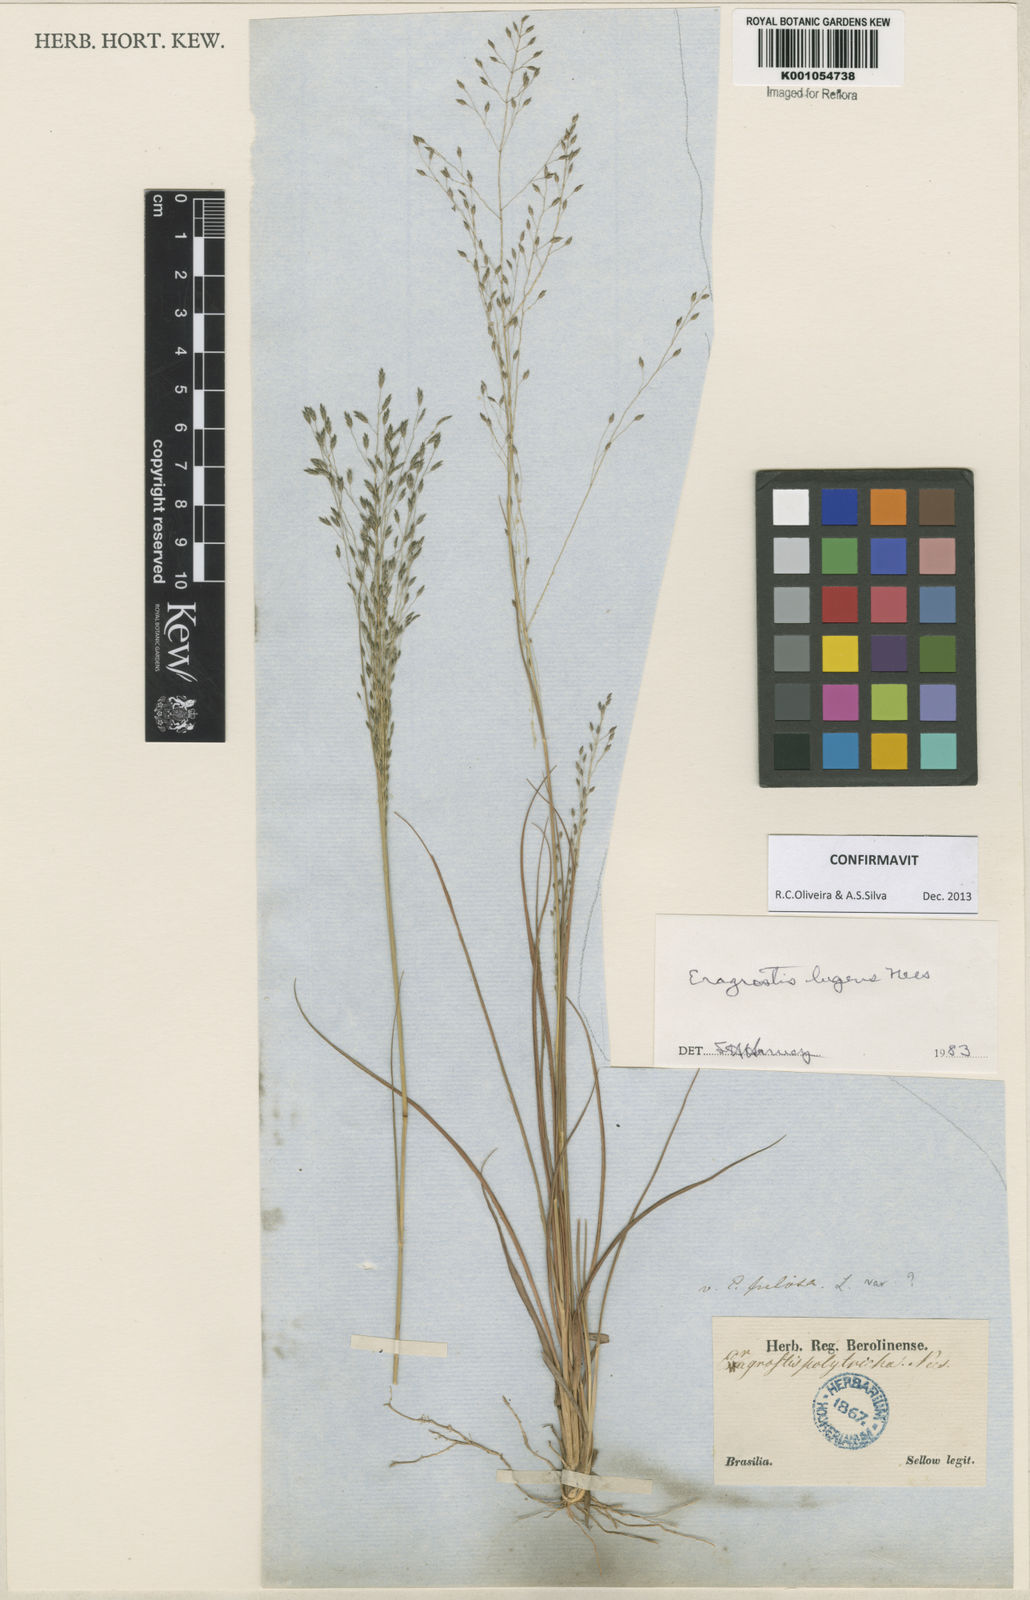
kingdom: Plantae
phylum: Tracheophyta
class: Liliopsida
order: Poales
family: Poaceae
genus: Eragrostis
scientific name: Eragrostis lugens
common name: Mourning love grass
